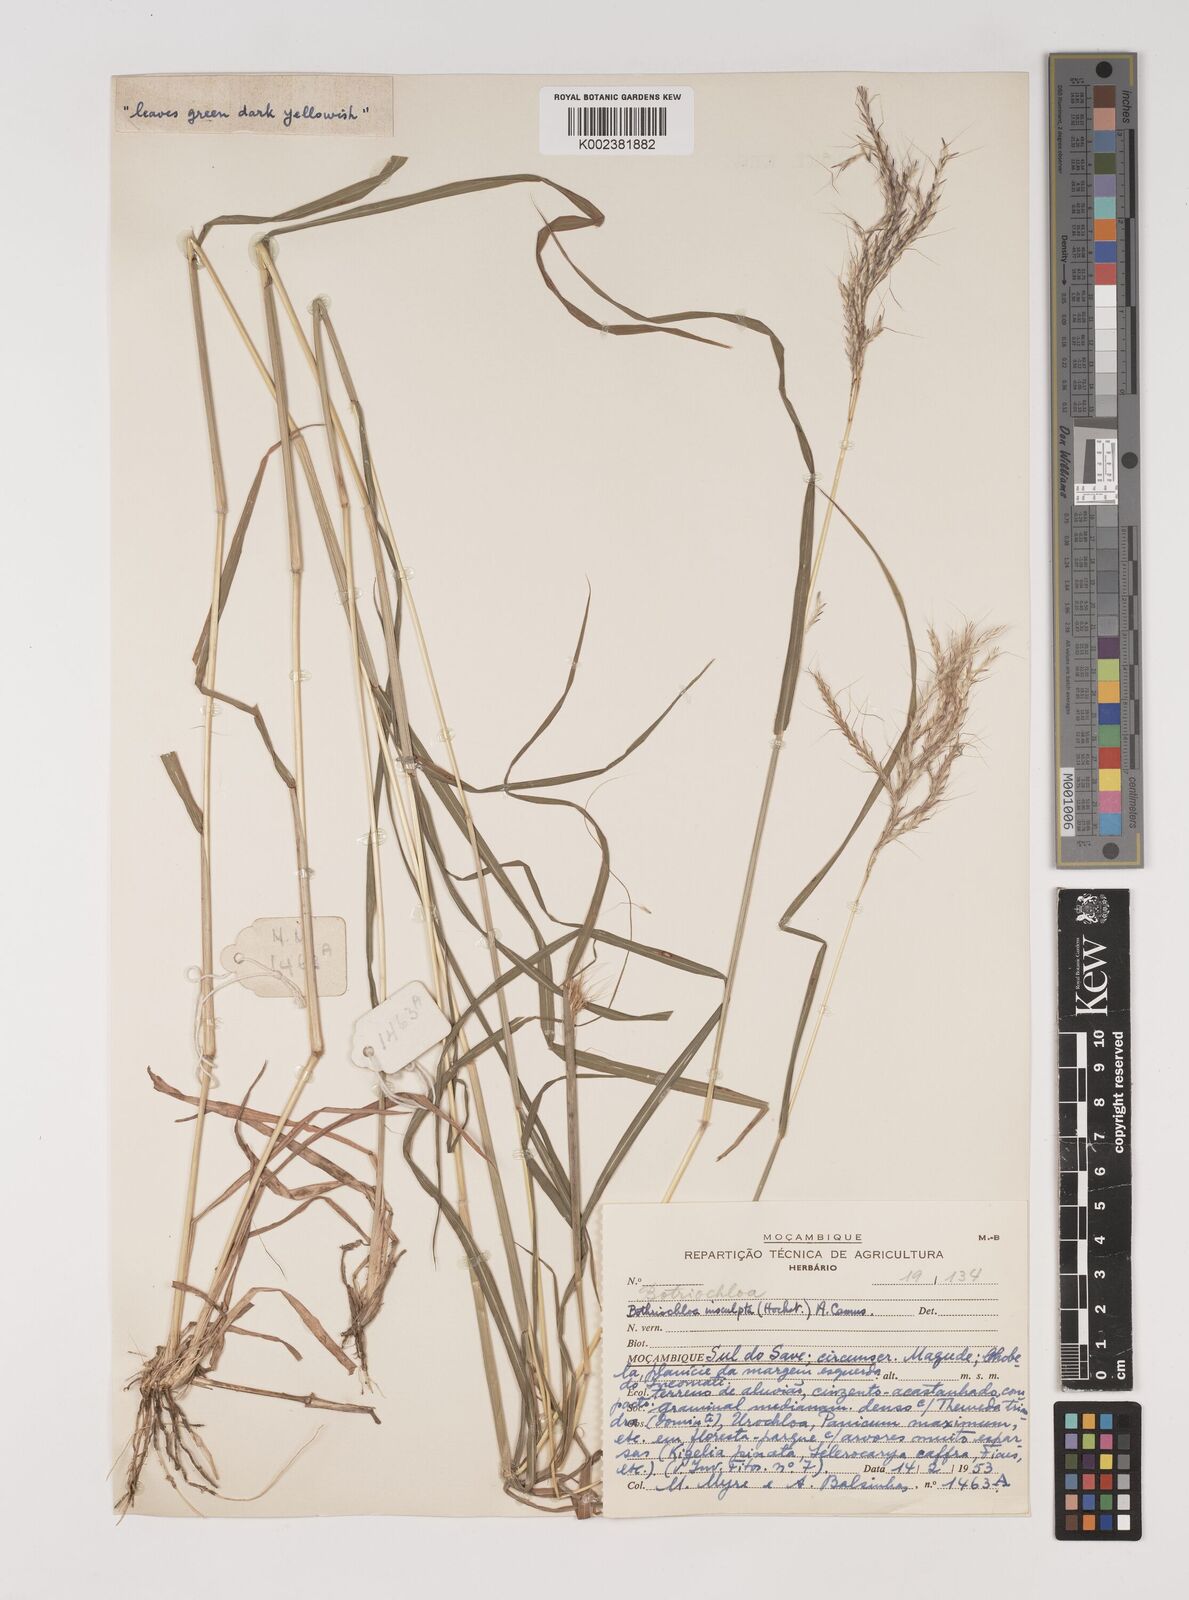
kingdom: Plantae
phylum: Tracheophyta
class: Liliopsida
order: Poales
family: Poaceae
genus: Bothriochloa
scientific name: Bothriochloa insculpta
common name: Creeping-bluegrass
